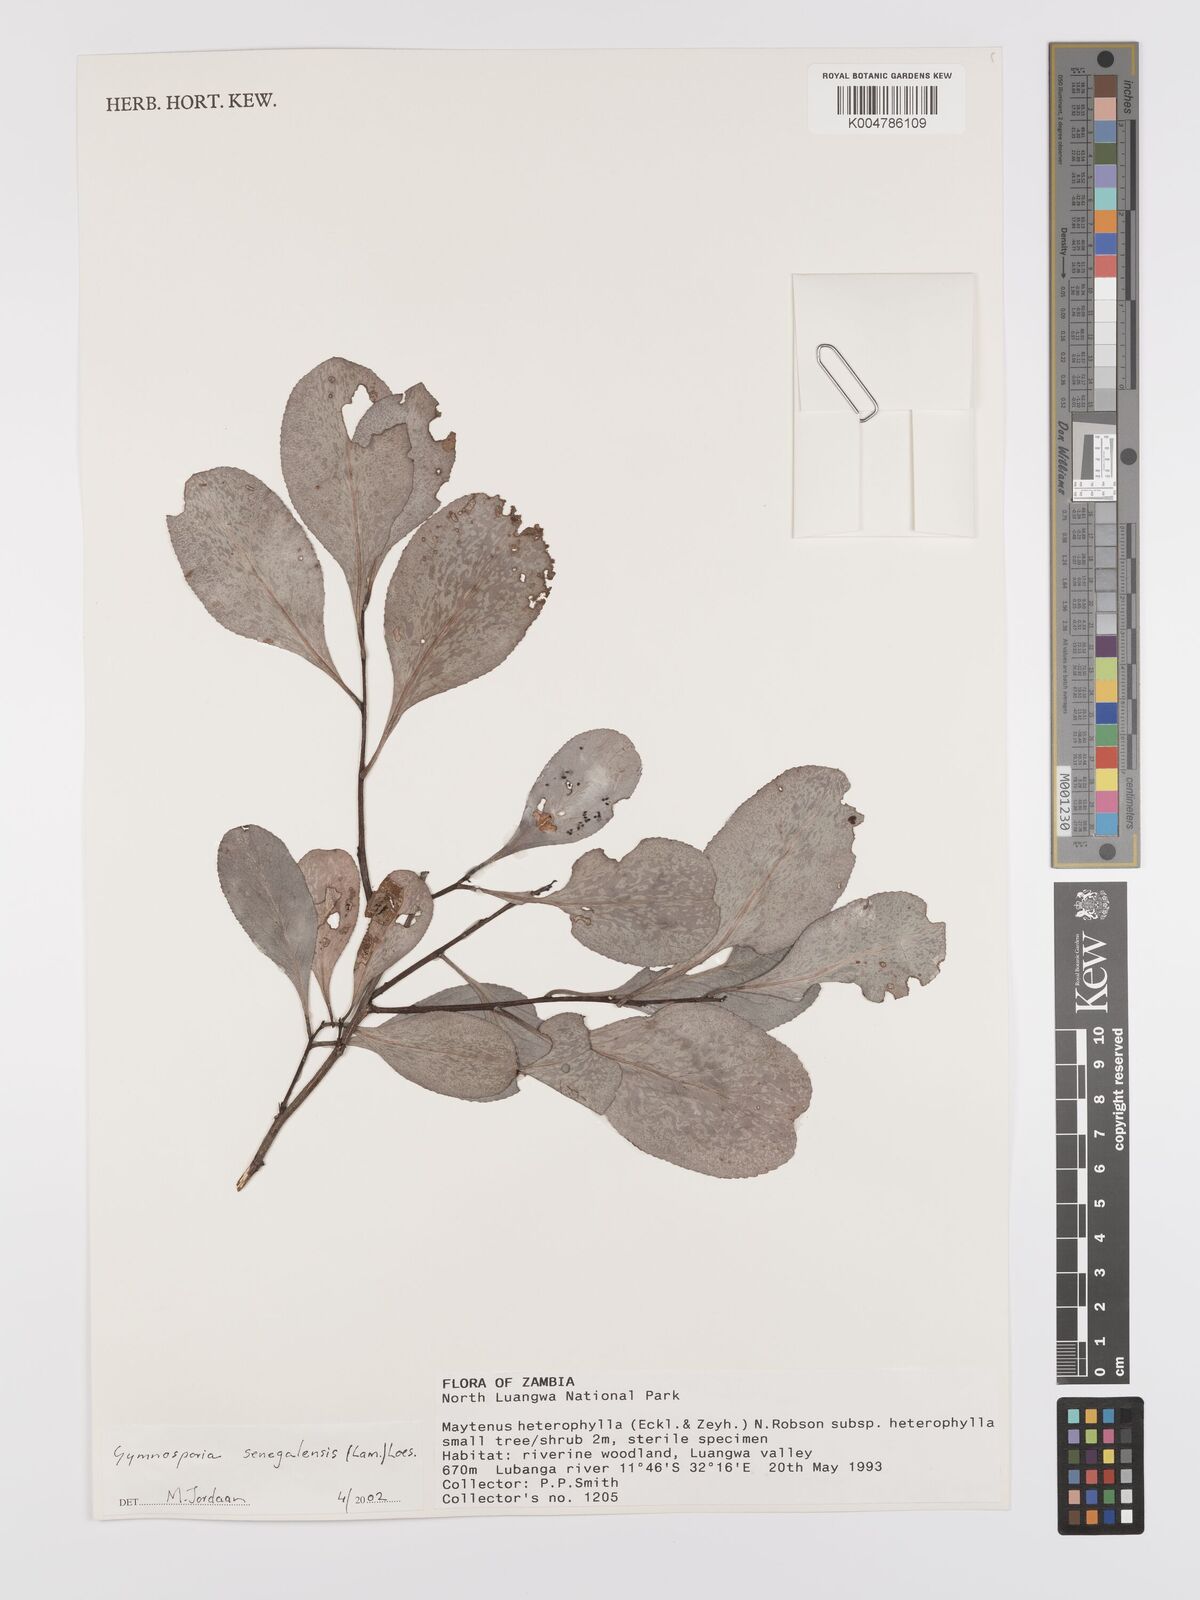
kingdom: Plantae
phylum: Tracheophyta
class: Magnoliopsida
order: Celastrales
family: Celastraceae
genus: Gymnosporia
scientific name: Gymnosporia senegalensis
